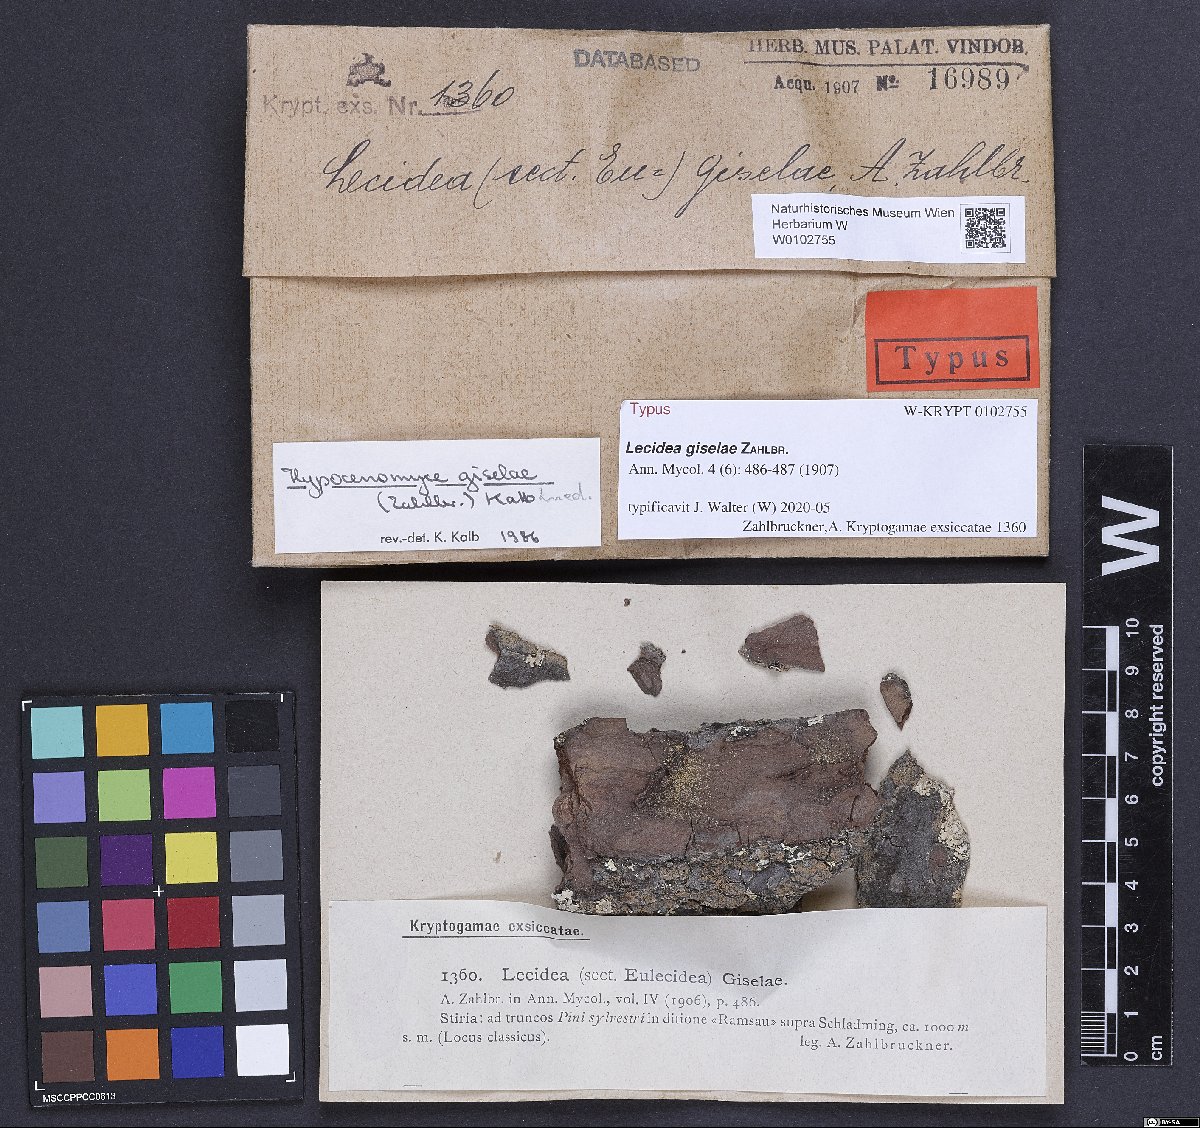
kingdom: Fungi
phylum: Ascomycota
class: Lecanoromycetes
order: Lecideales
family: Lecideaceae
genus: Lecidea
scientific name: Lecidea giselae
